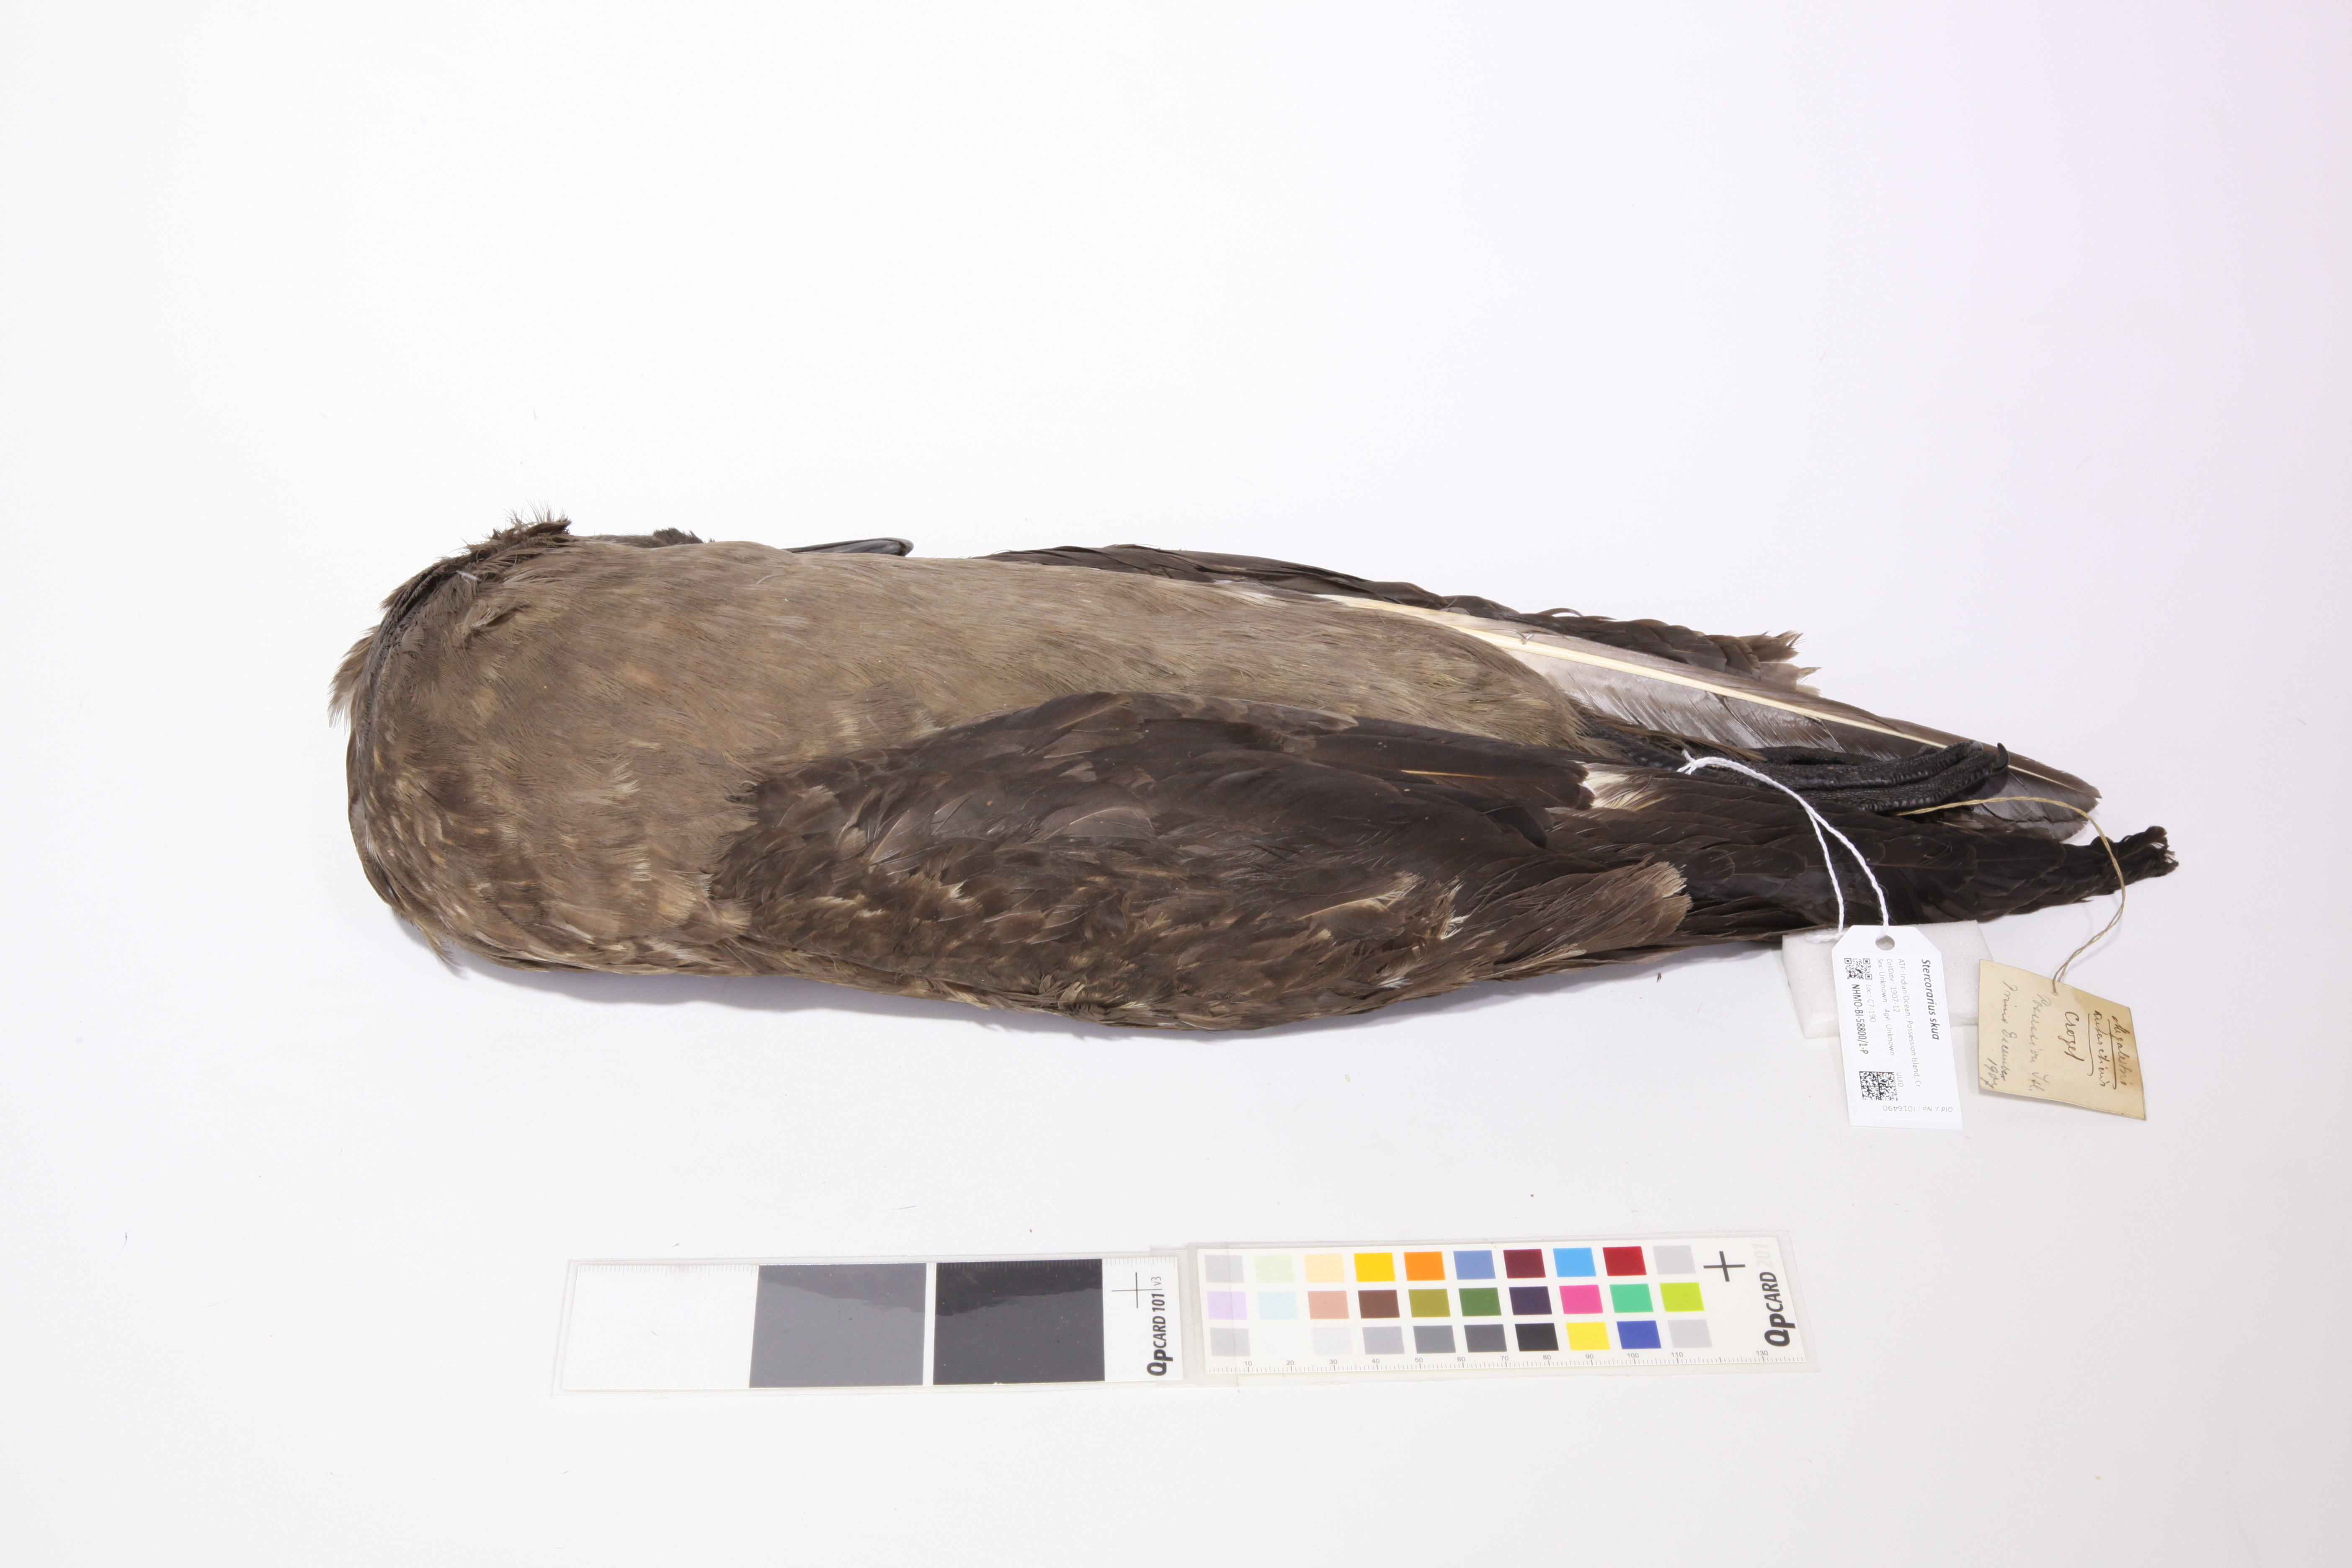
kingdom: Animalia
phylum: Chordata
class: Aves
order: Charadriiformes
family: Stercorariidae
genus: Stercorarius
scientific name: Stercorarius antarcticus
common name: Brown skua
